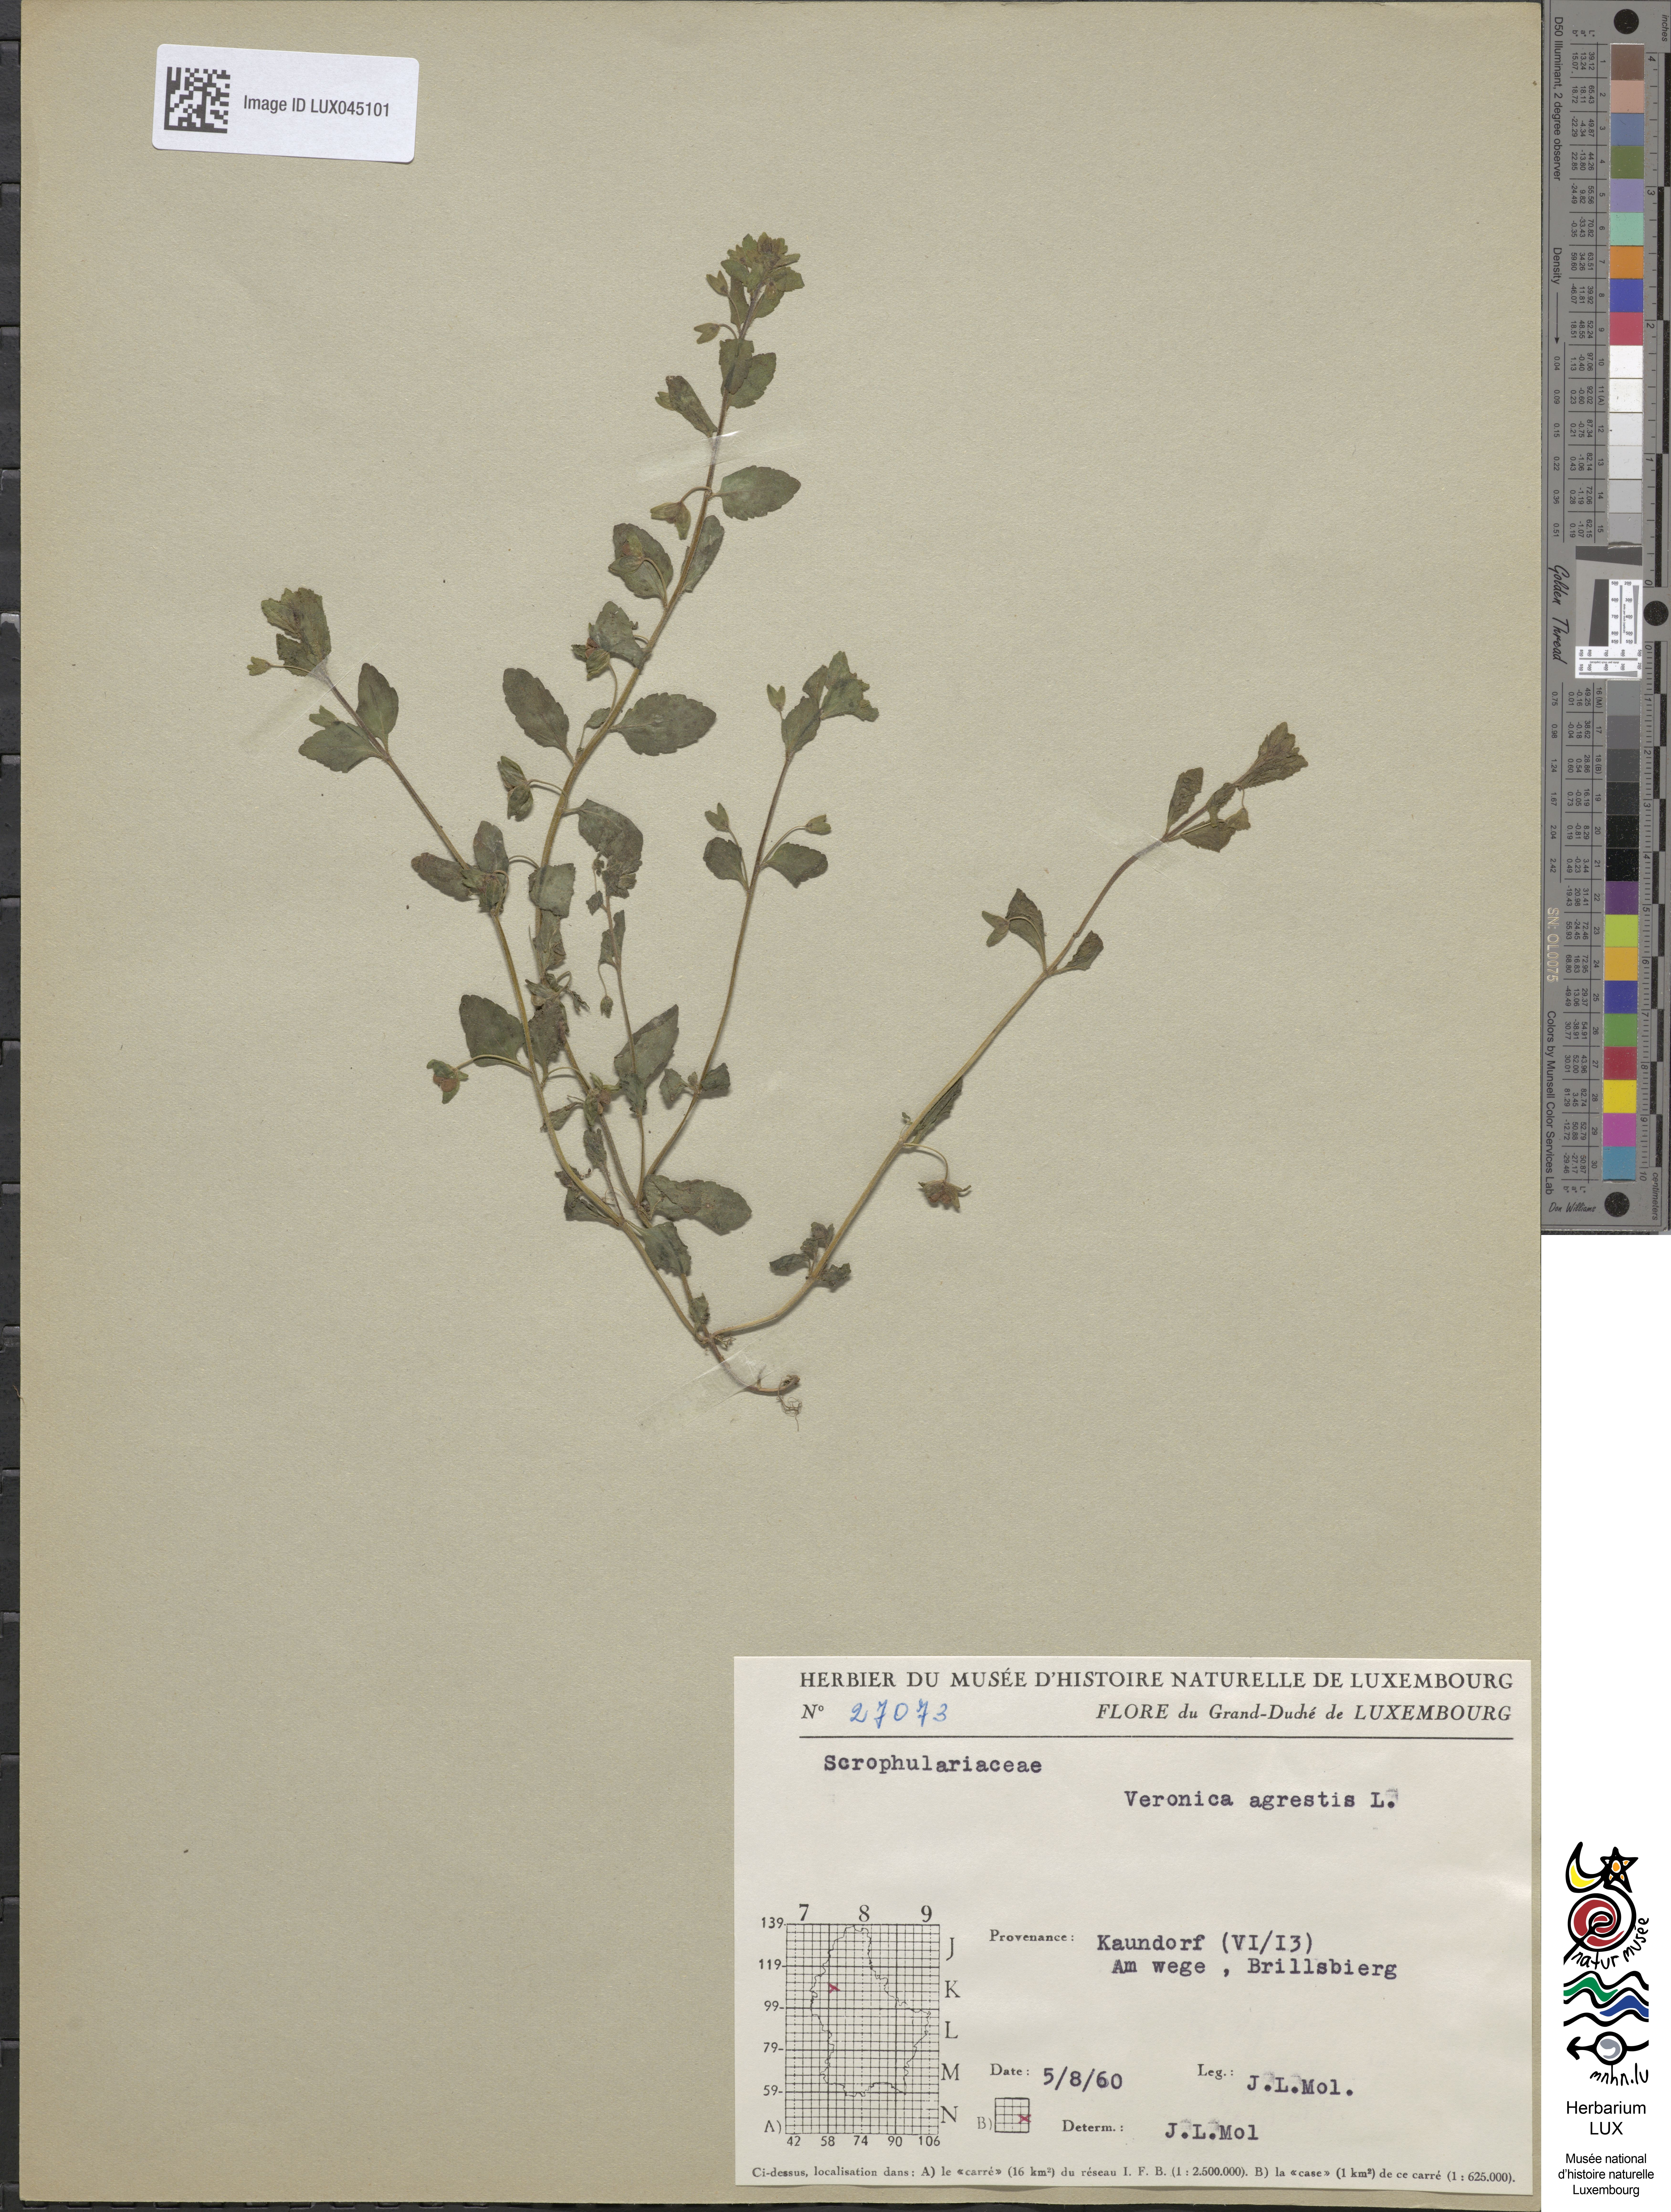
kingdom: Plantae
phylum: Tracheophyta
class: Magnoliopsida
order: Lamiales
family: Plantaginaceae
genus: Veronica
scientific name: Veronica agrestis
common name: Green field-speedwell
